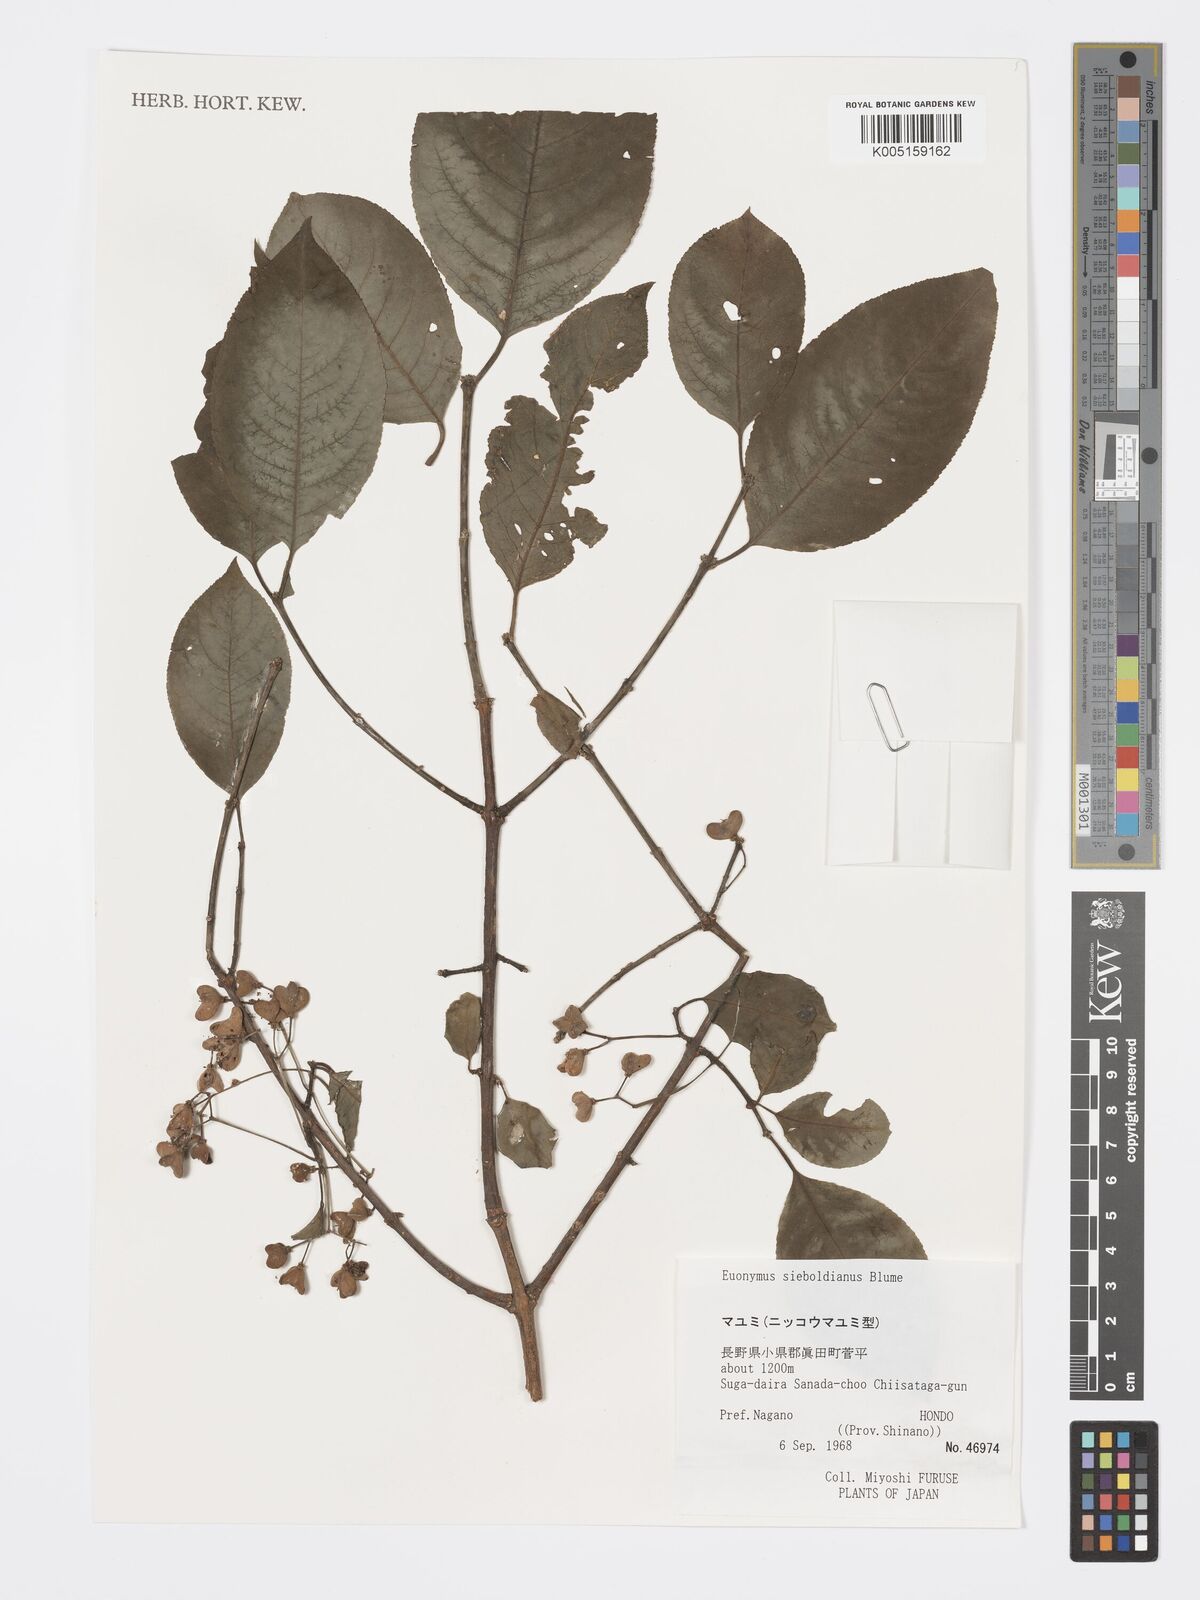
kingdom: Plantae
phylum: Tracheophyta
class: Magnoliopsida
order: Celastrales
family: Celastraceae
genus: Euonymus
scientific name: Euonymus hamiltonianus
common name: Hamilton's spindletree
